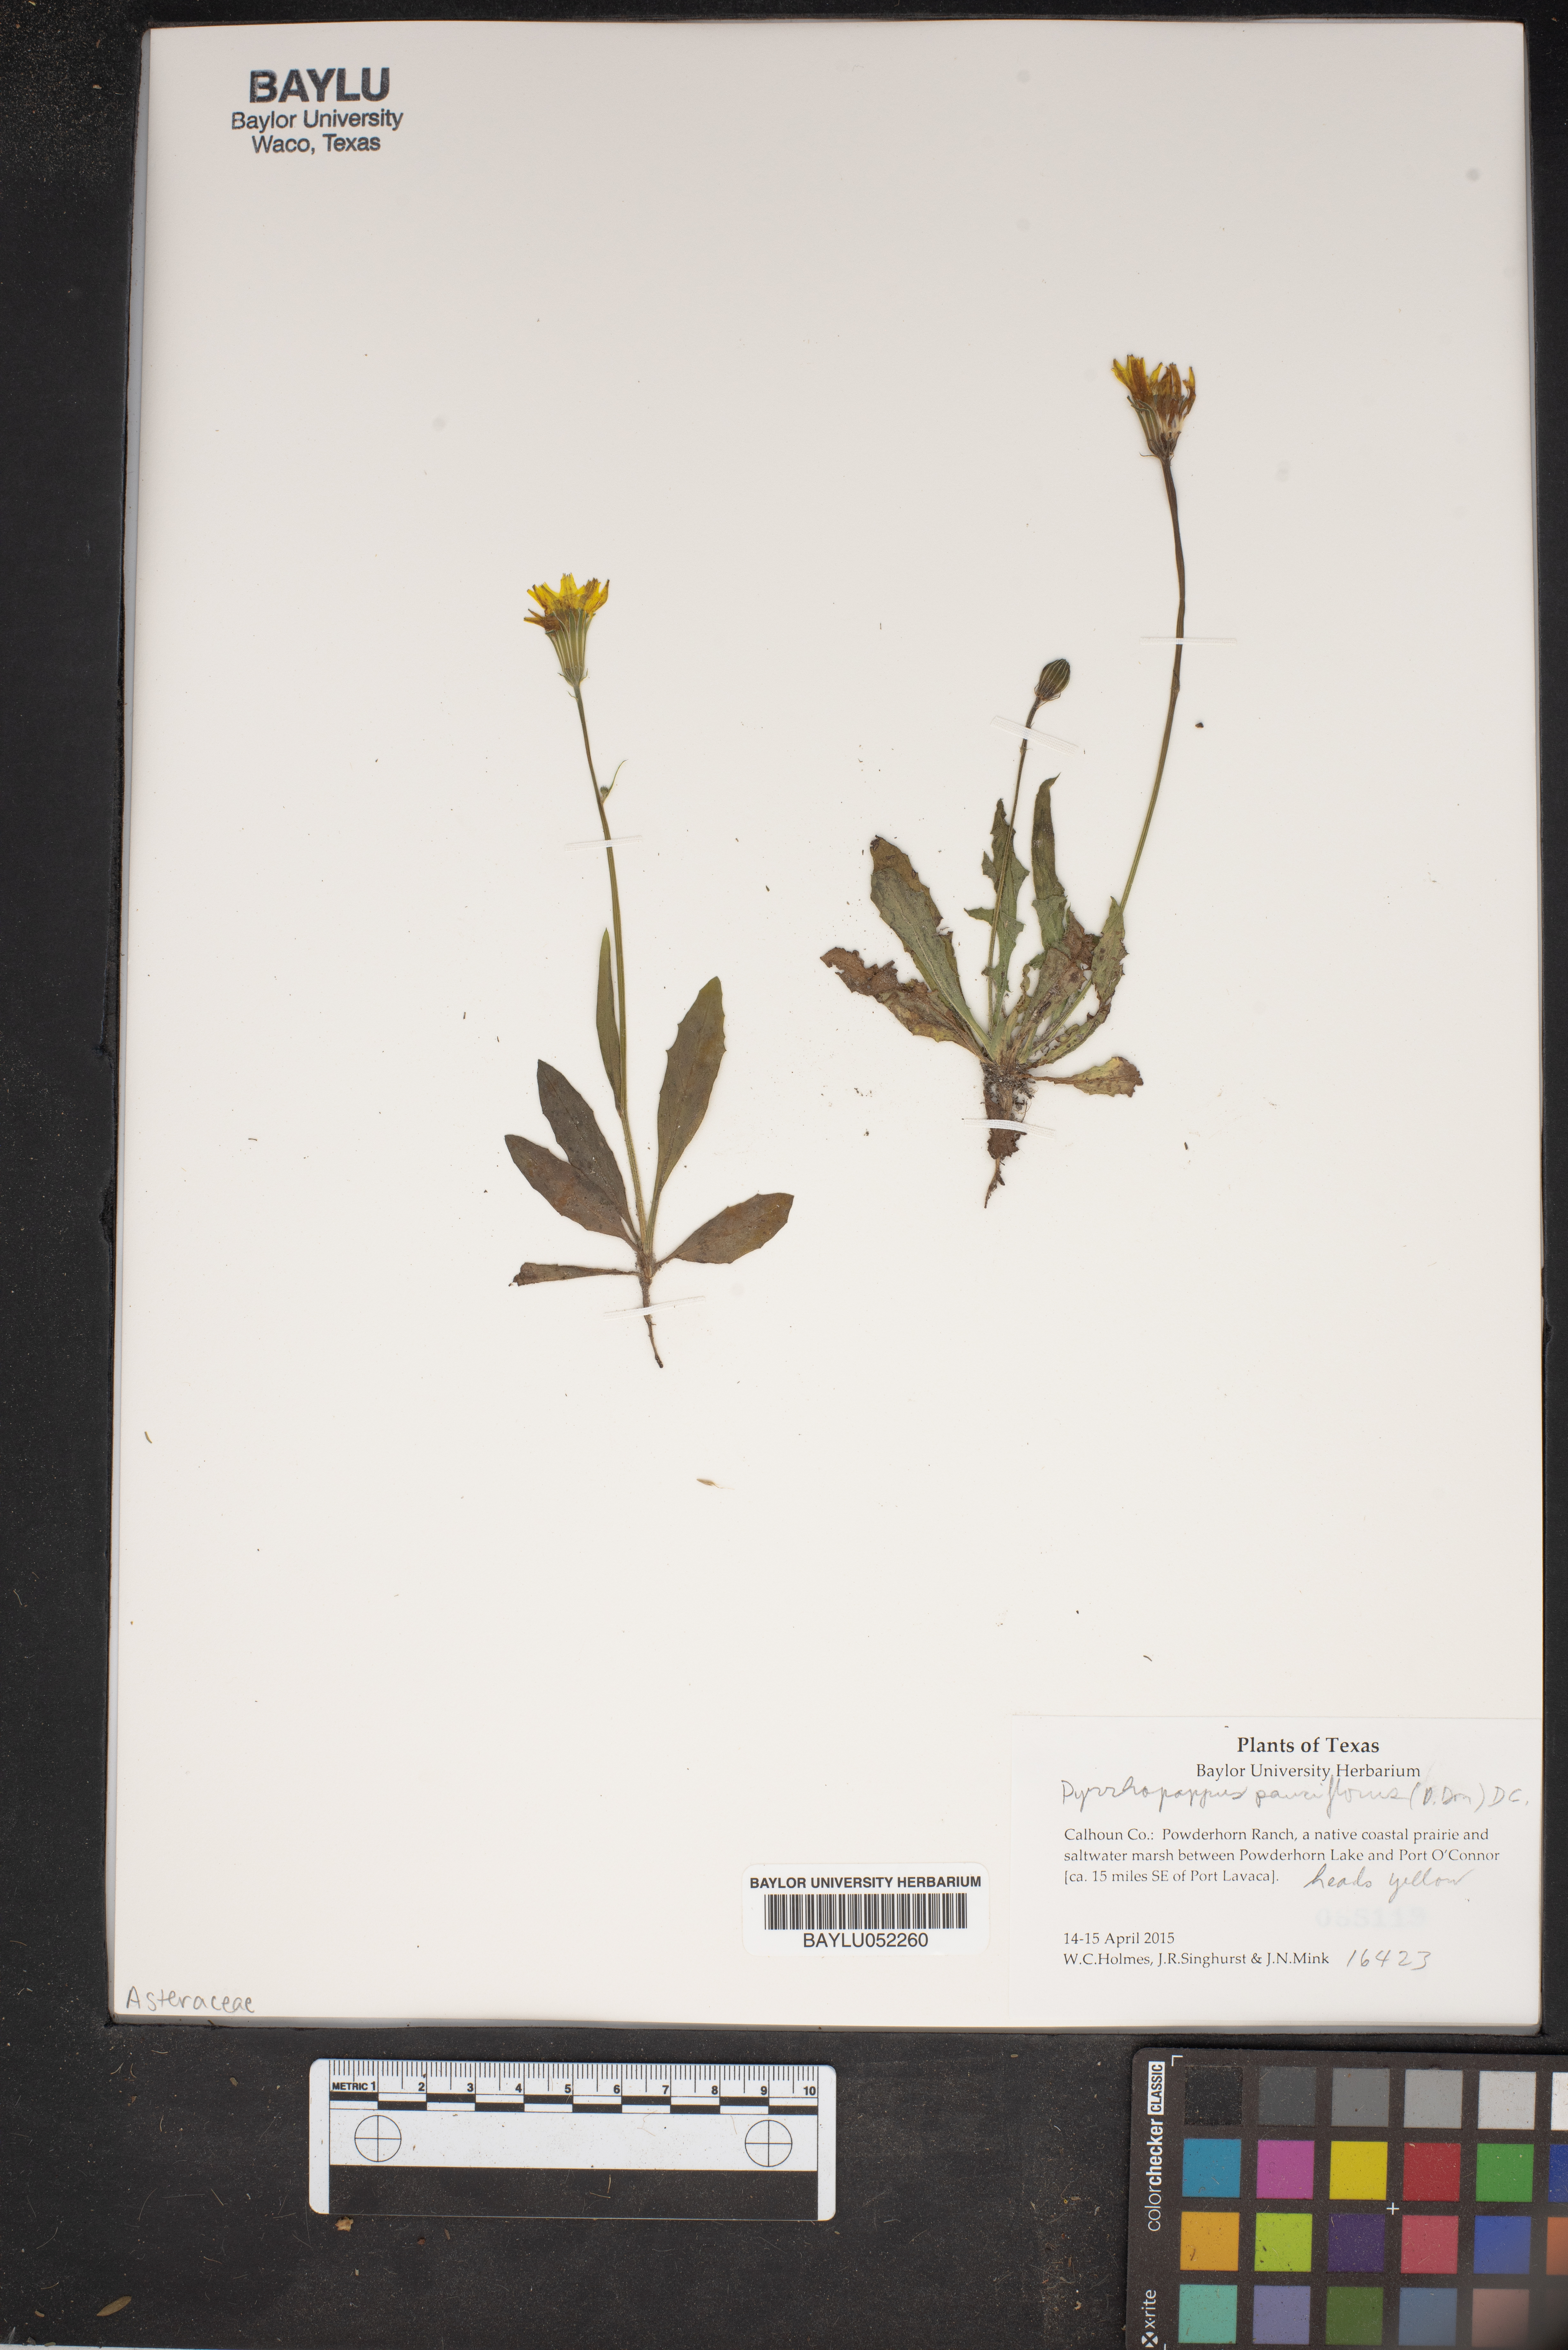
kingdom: Plantae
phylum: Tracheophyta
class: Magnoliopsida
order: Asterales
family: Asteraceae
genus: Pyrrhopappus
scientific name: Pyrrhopappus pauciflorus
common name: Texas false dandelion
